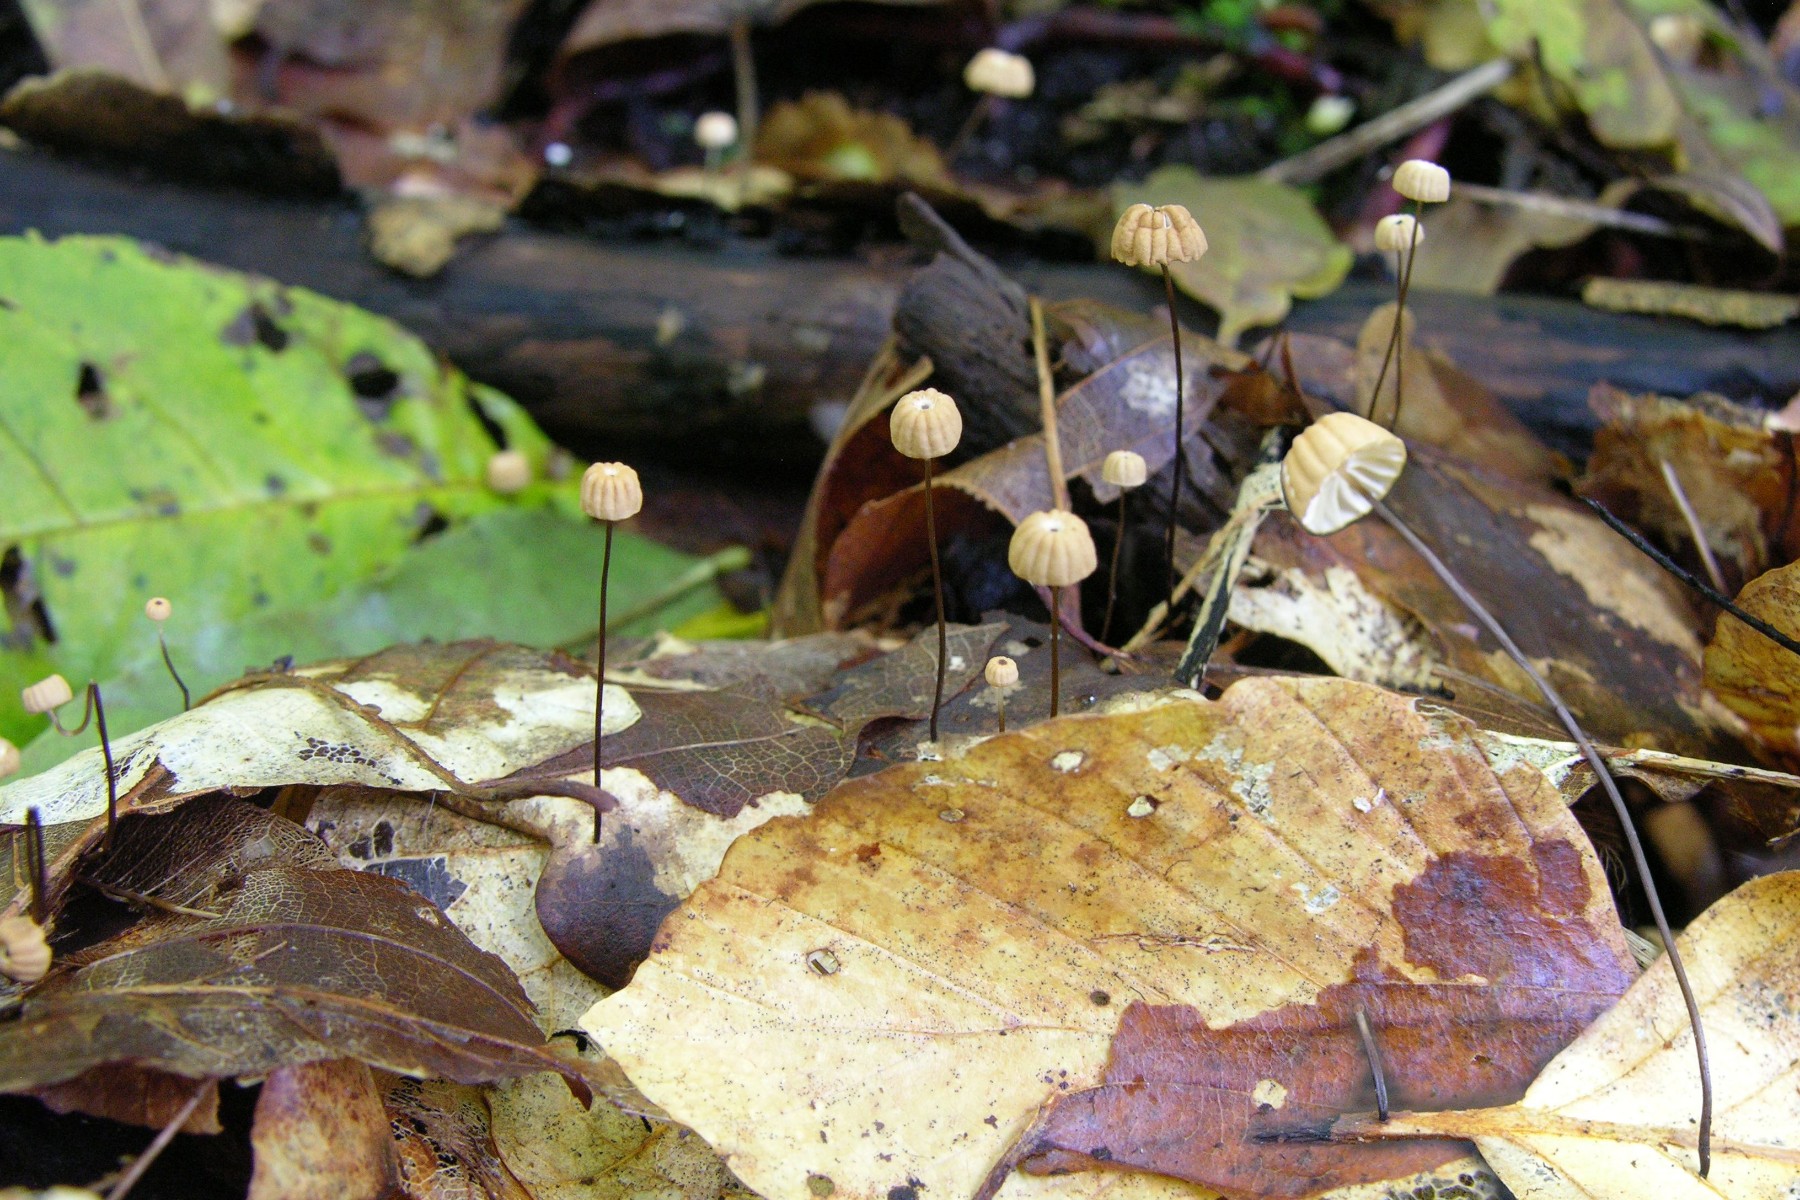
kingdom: Fungi
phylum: Basidiomycota
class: Agaricomycetes
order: Agaricales
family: Marasmiaceae
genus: Marasmius
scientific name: Marasmius bulliardii
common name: furet bruskhat
